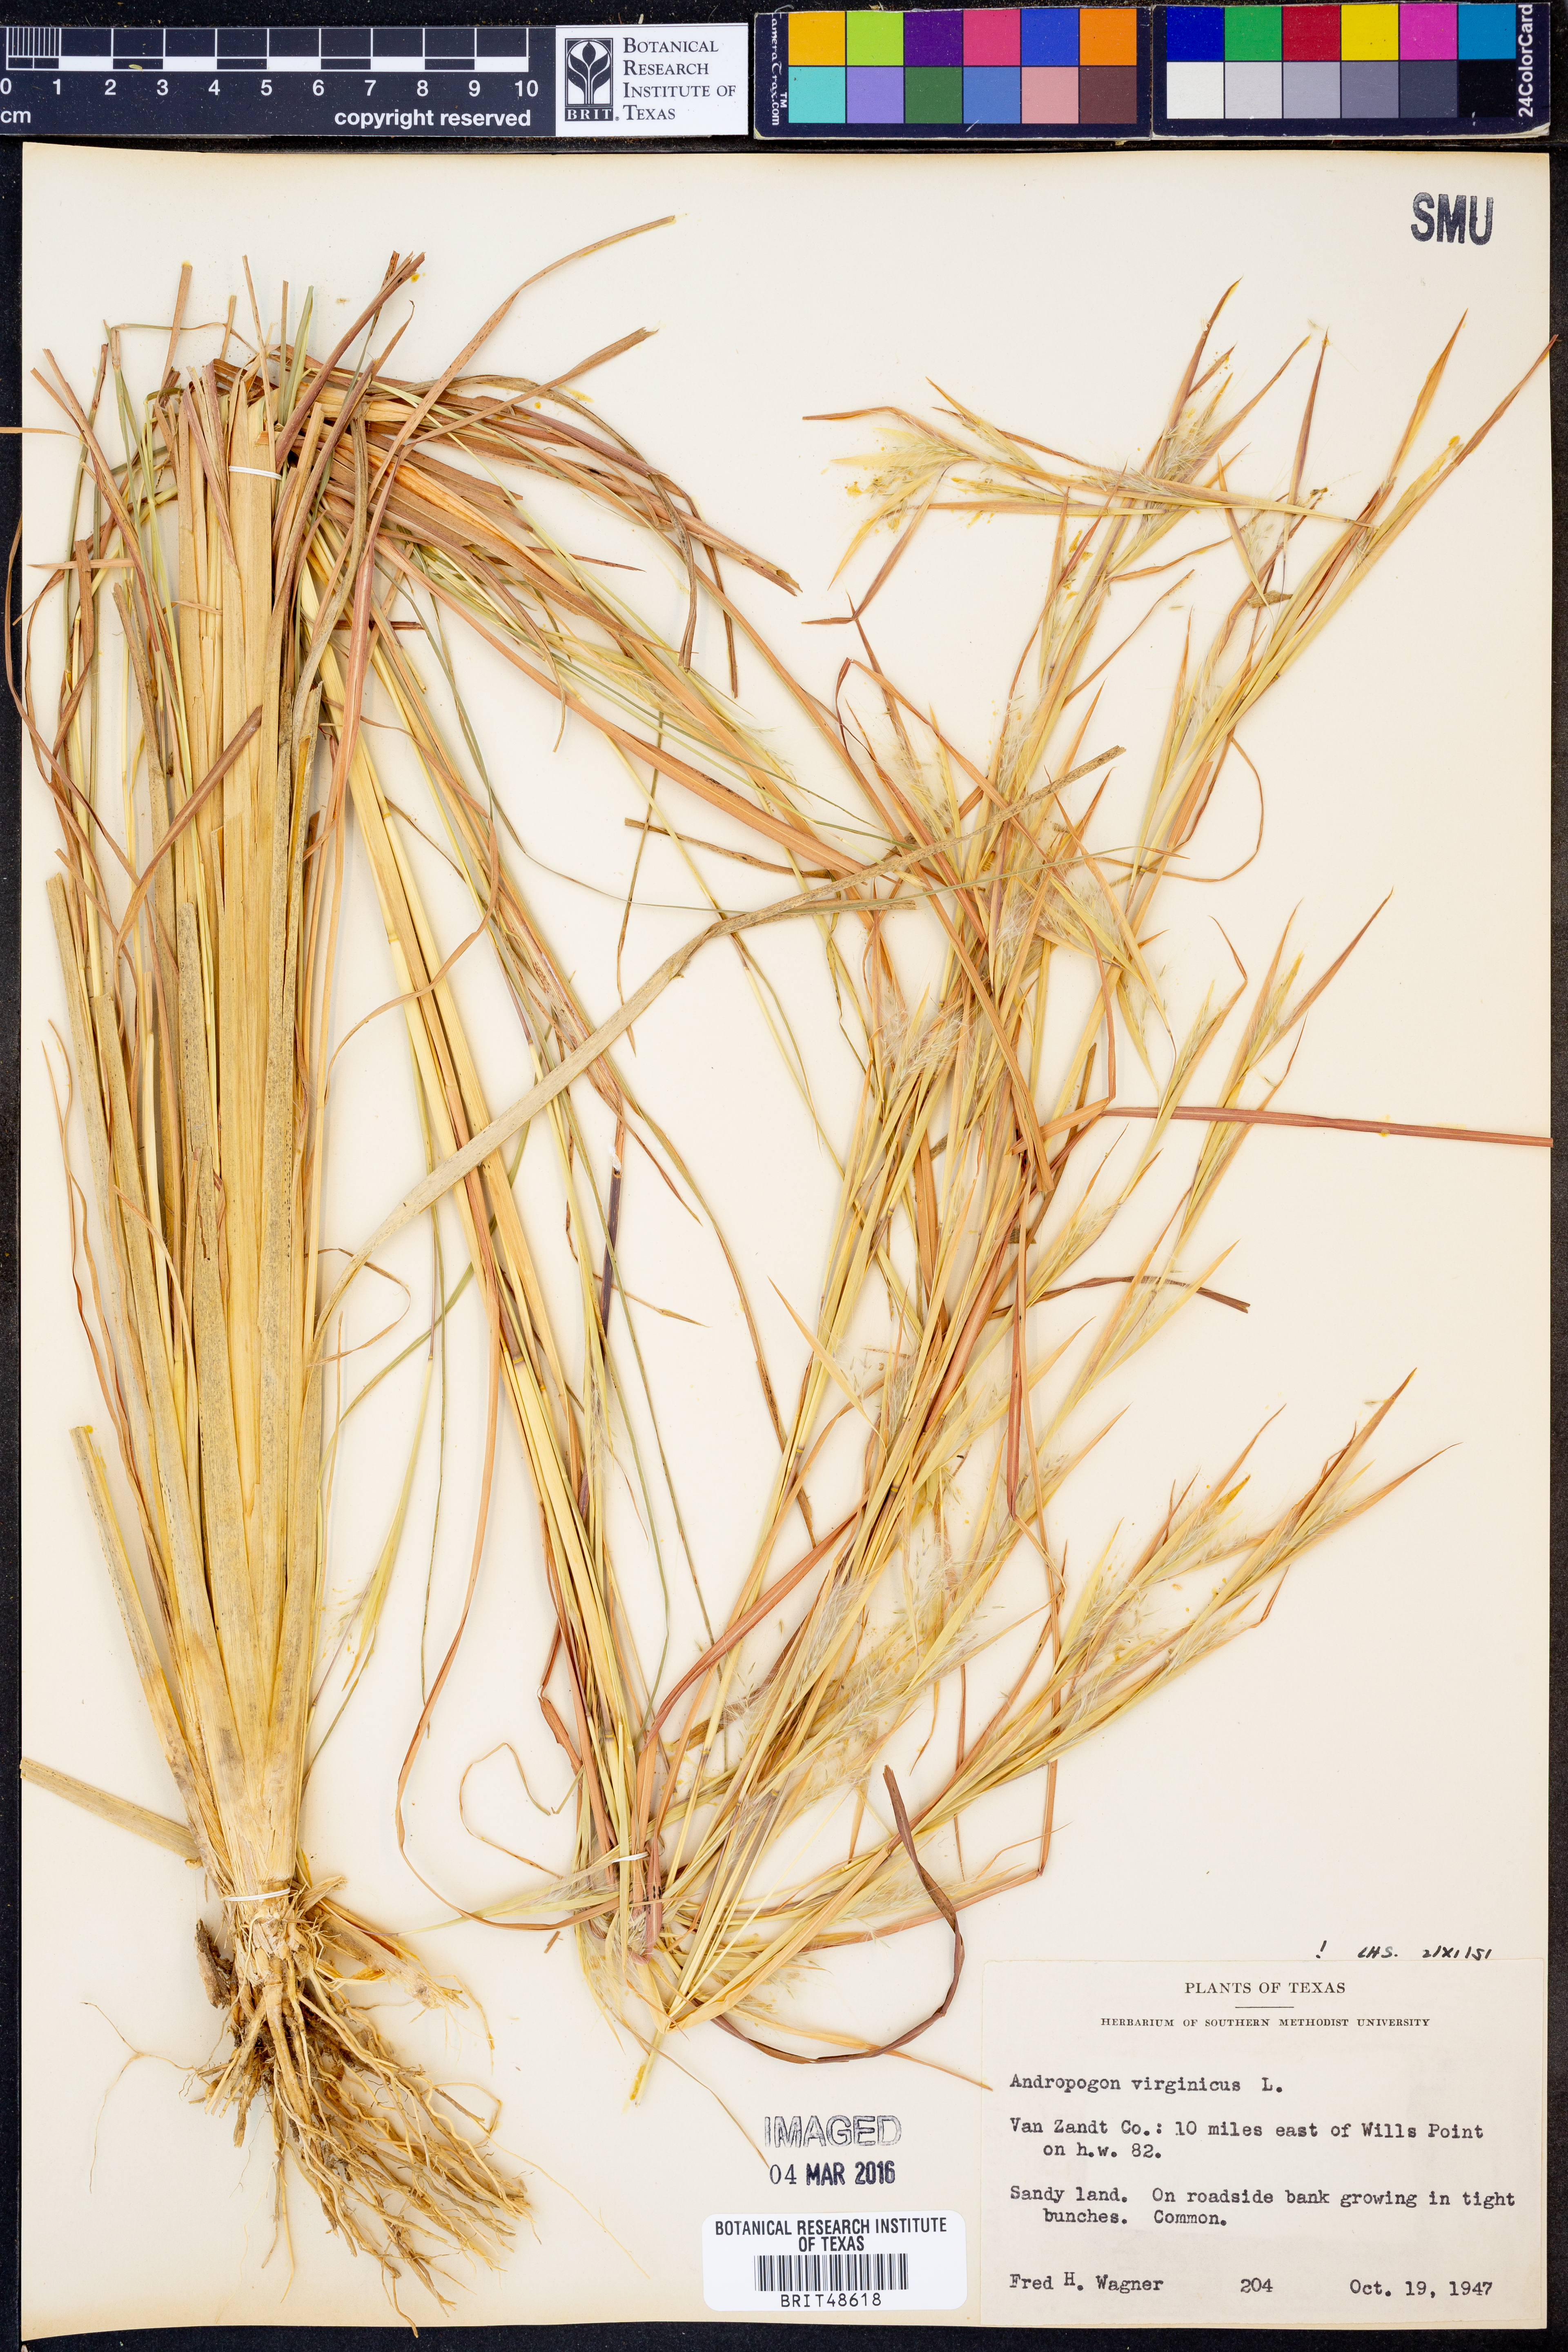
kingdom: Plantae
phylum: Tracheophyta
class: Liliopsida
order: Poales
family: Poaceae
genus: Andropogon
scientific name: Andropogon virginicus
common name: Broomsedge bluestem
